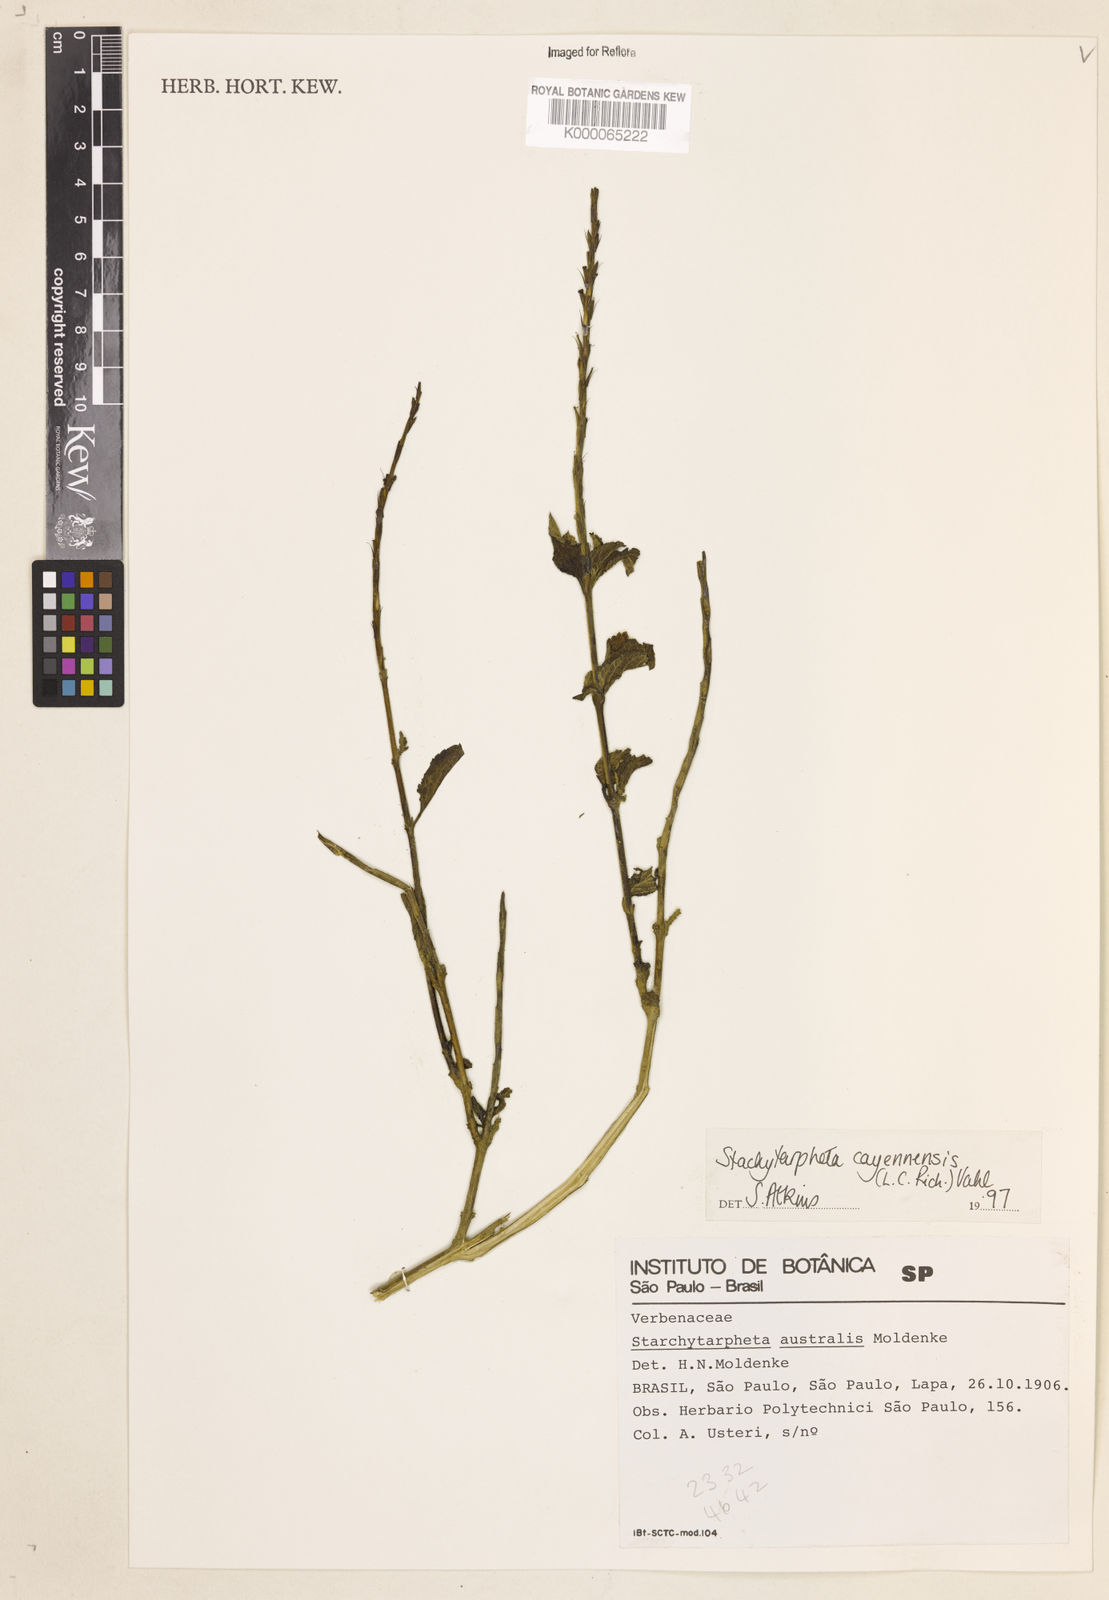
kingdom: Plantae
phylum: Tracheophyta
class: Magnoliopsida
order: Lamiales
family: Verbenaceae
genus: Stachytarpheta
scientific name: Stachytarpheta cayennensis
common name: Cayenne porterweed
